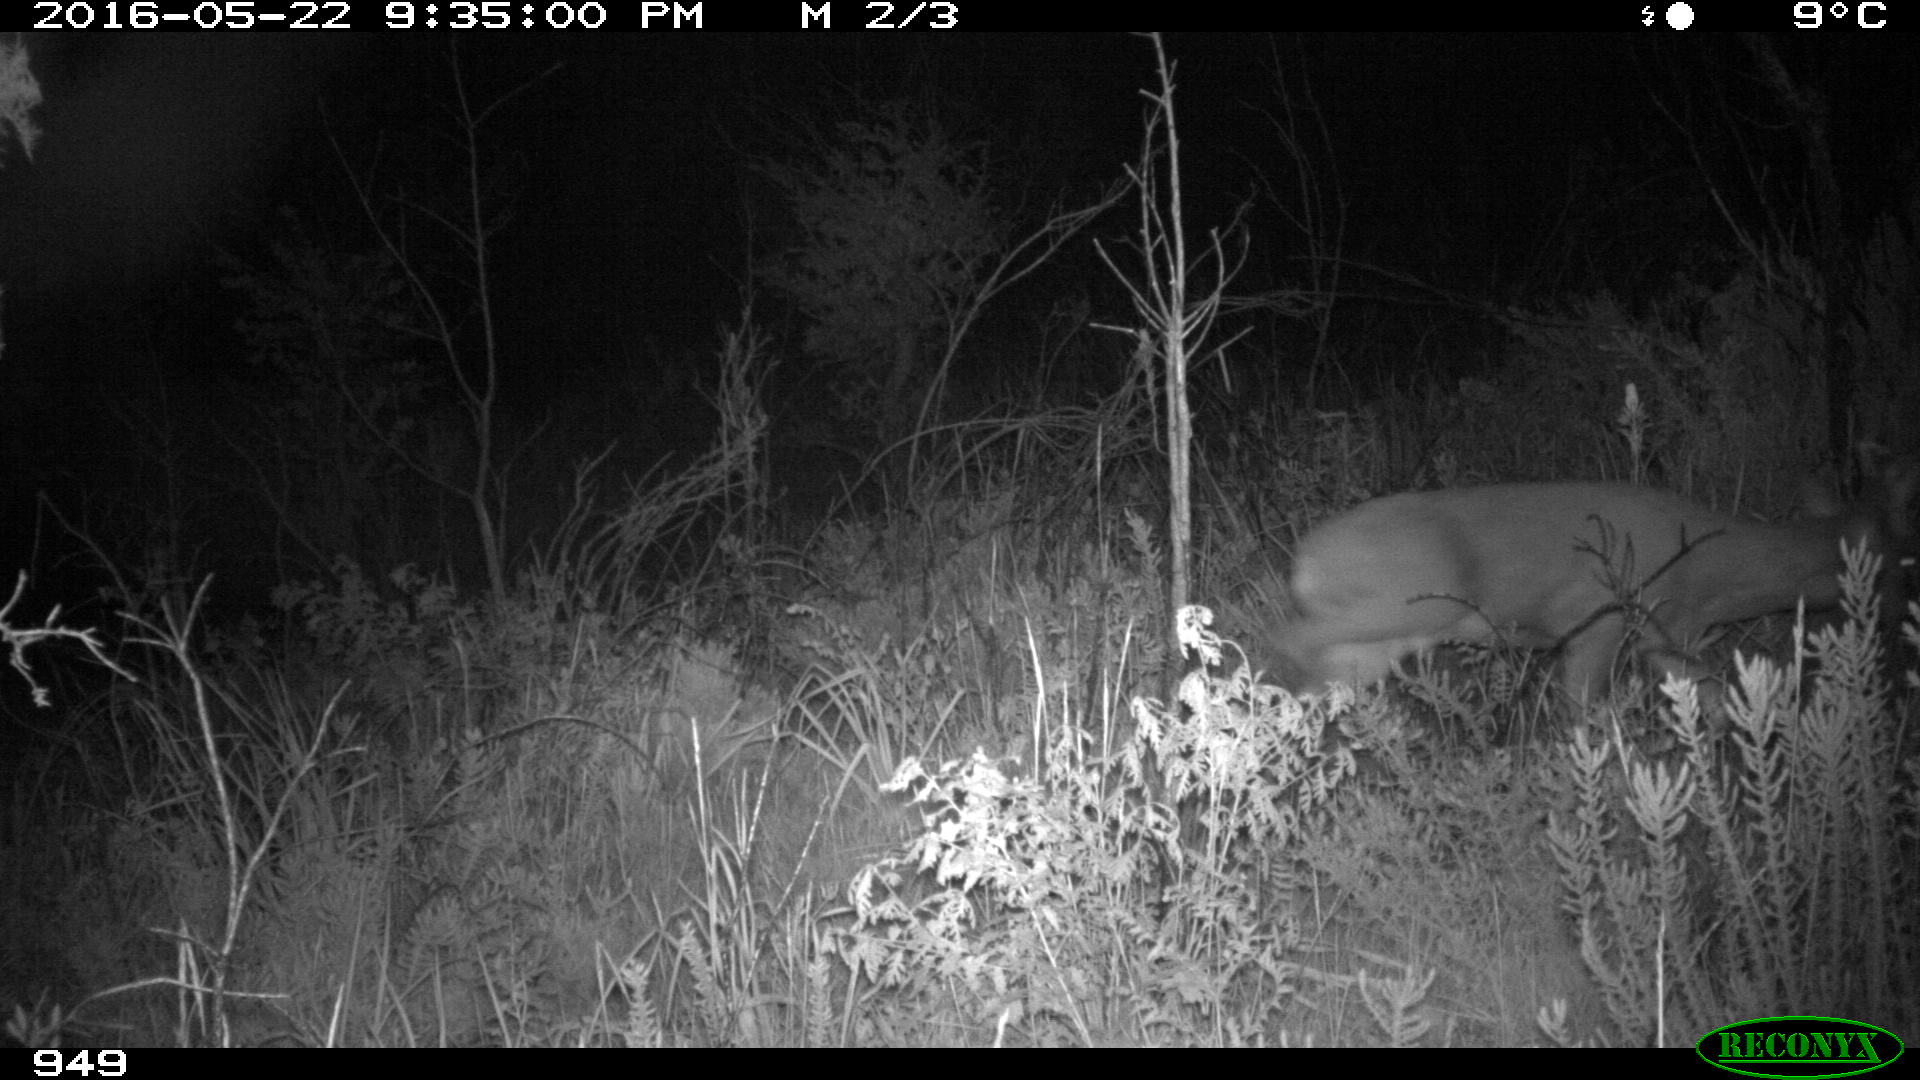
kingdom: Animalia
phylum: Chordata
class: Mammalia
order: Artiodactyla
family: Cervidae
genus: Capreolus
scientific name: Capreolus capreolus
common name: Western roe deer
